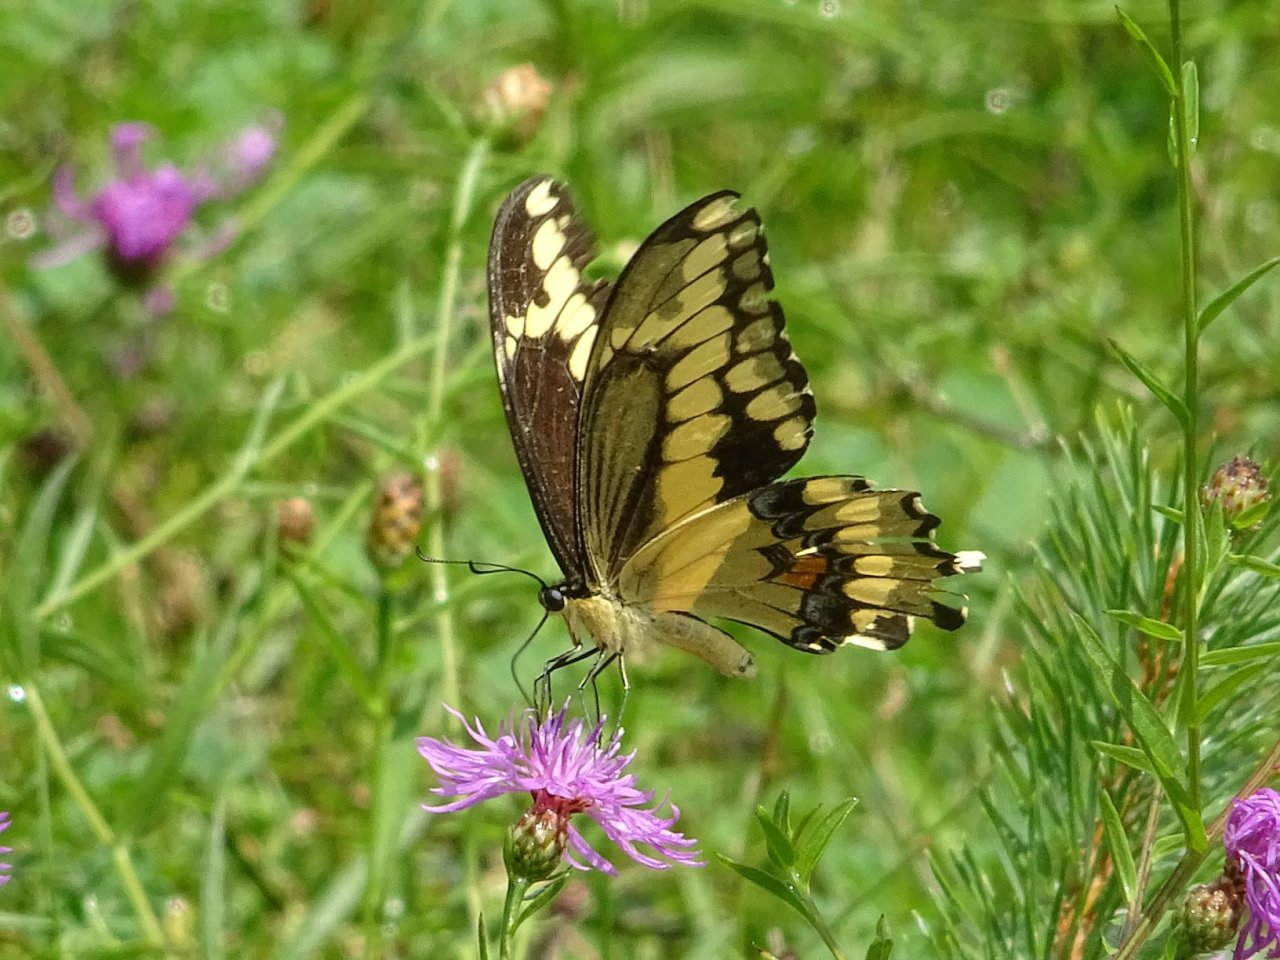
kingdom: Animalia
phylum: Arthropoda
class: Insecta
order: Lepidoptera
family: Papilionidae
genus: Papilio
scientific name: Papilio cresphontes
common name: Eastern Giant Swallowtail
